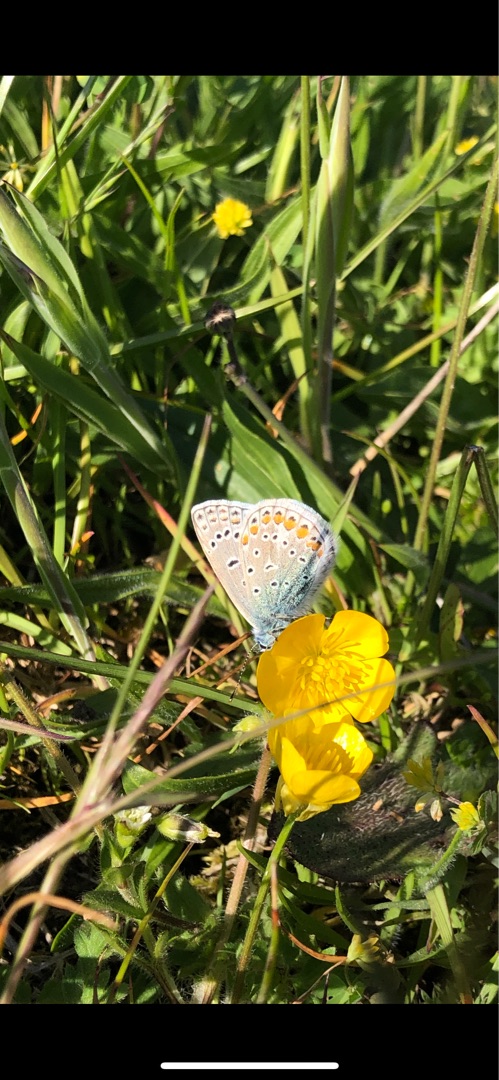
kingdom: Animalia
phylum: Arthropoda
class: Insecta
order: Lepidoptera
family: Lycaenidae
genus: Polyommatus
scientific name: Polyommatus icarus
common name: Almindelig blåfugl
